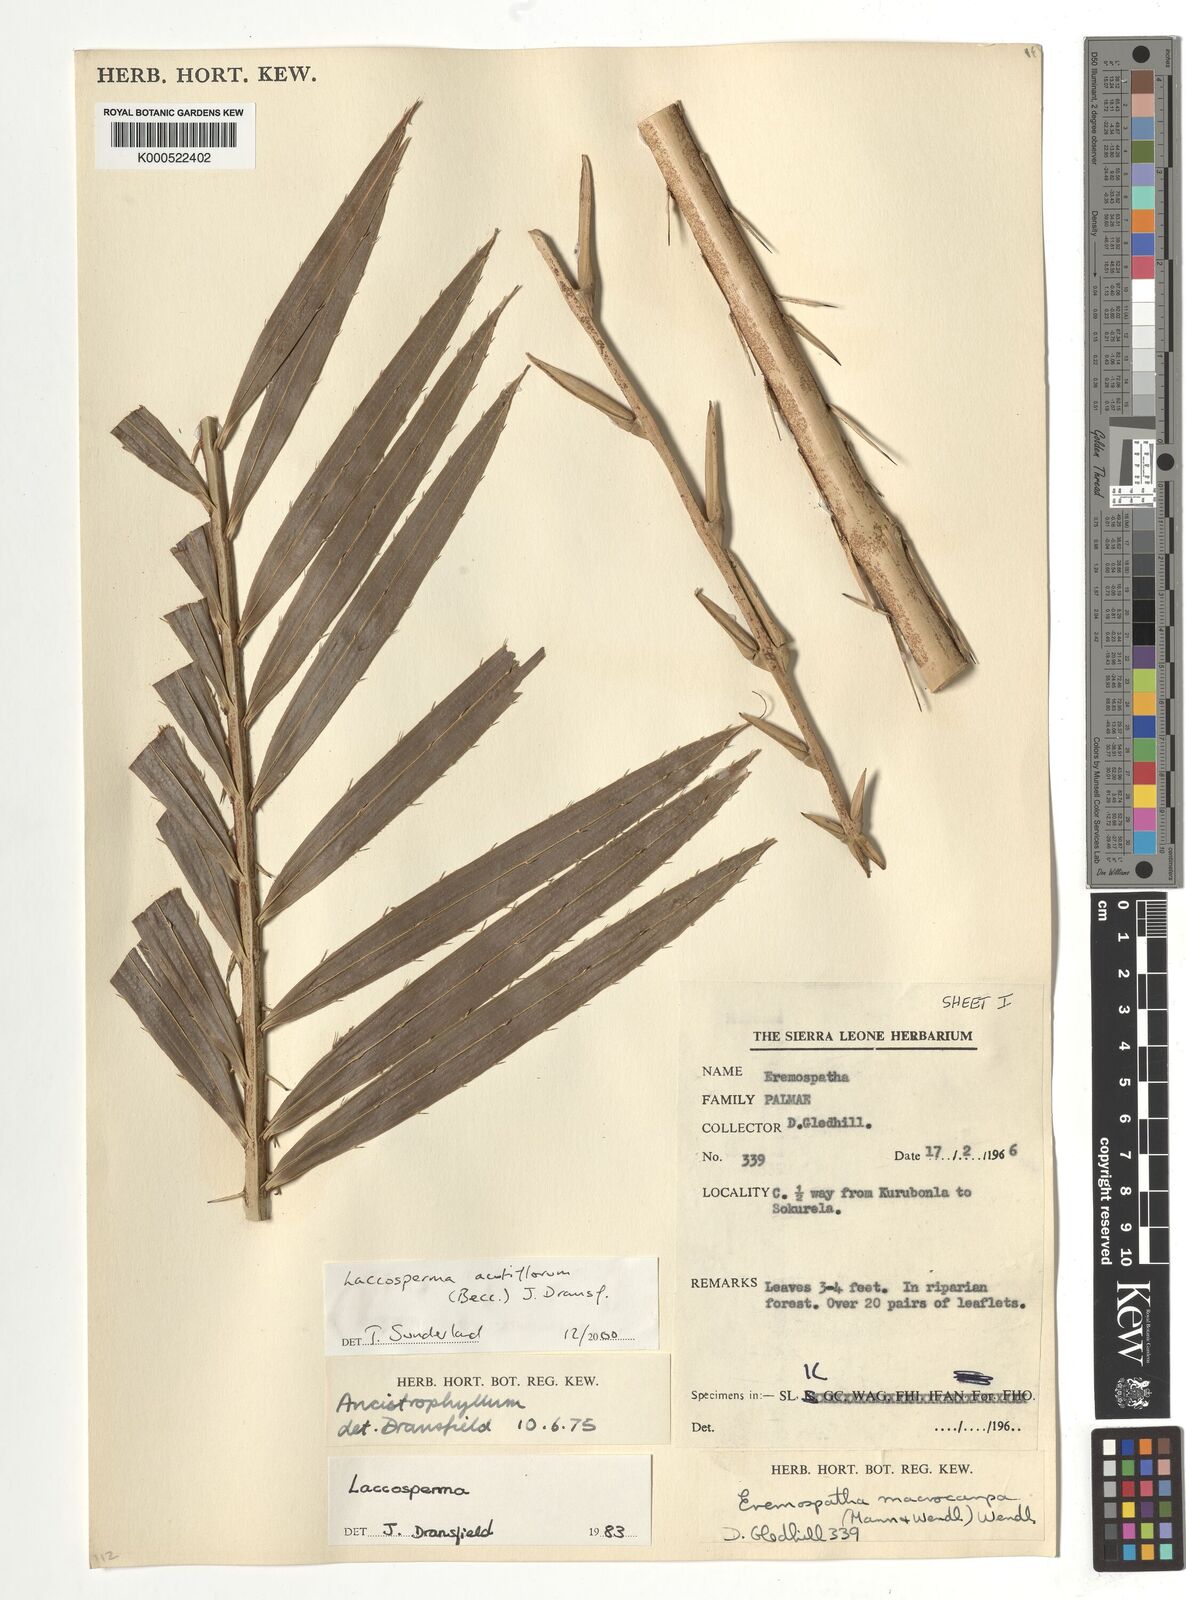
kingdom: Plantae
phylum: Tracheophyta
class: Liliopsida
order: Arecales
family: Arecaceae
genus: Laccosperma
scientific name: Laccosperma acutiflorum
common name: Rattan
